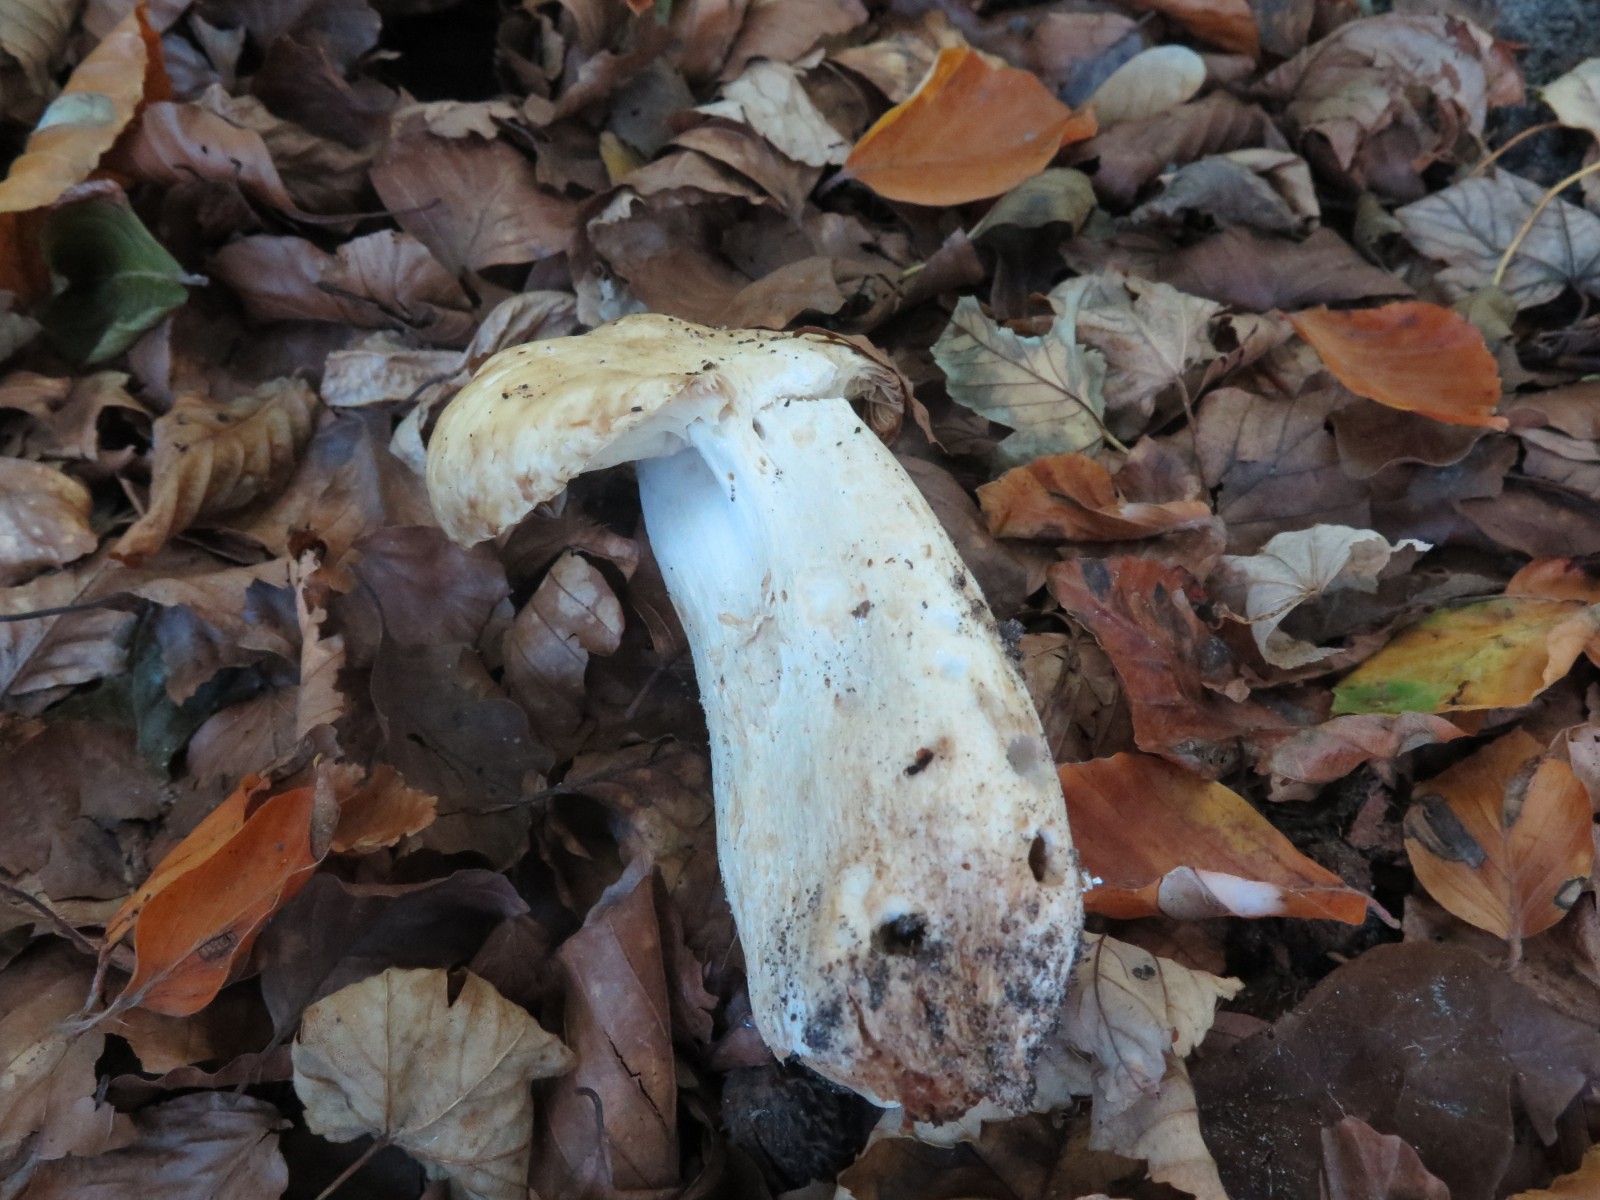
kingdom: Fungi
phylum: Basidiomycota
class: Agaricomycetes
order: Russulales
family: Russulaceae
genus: Russula
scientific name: Russula grata
